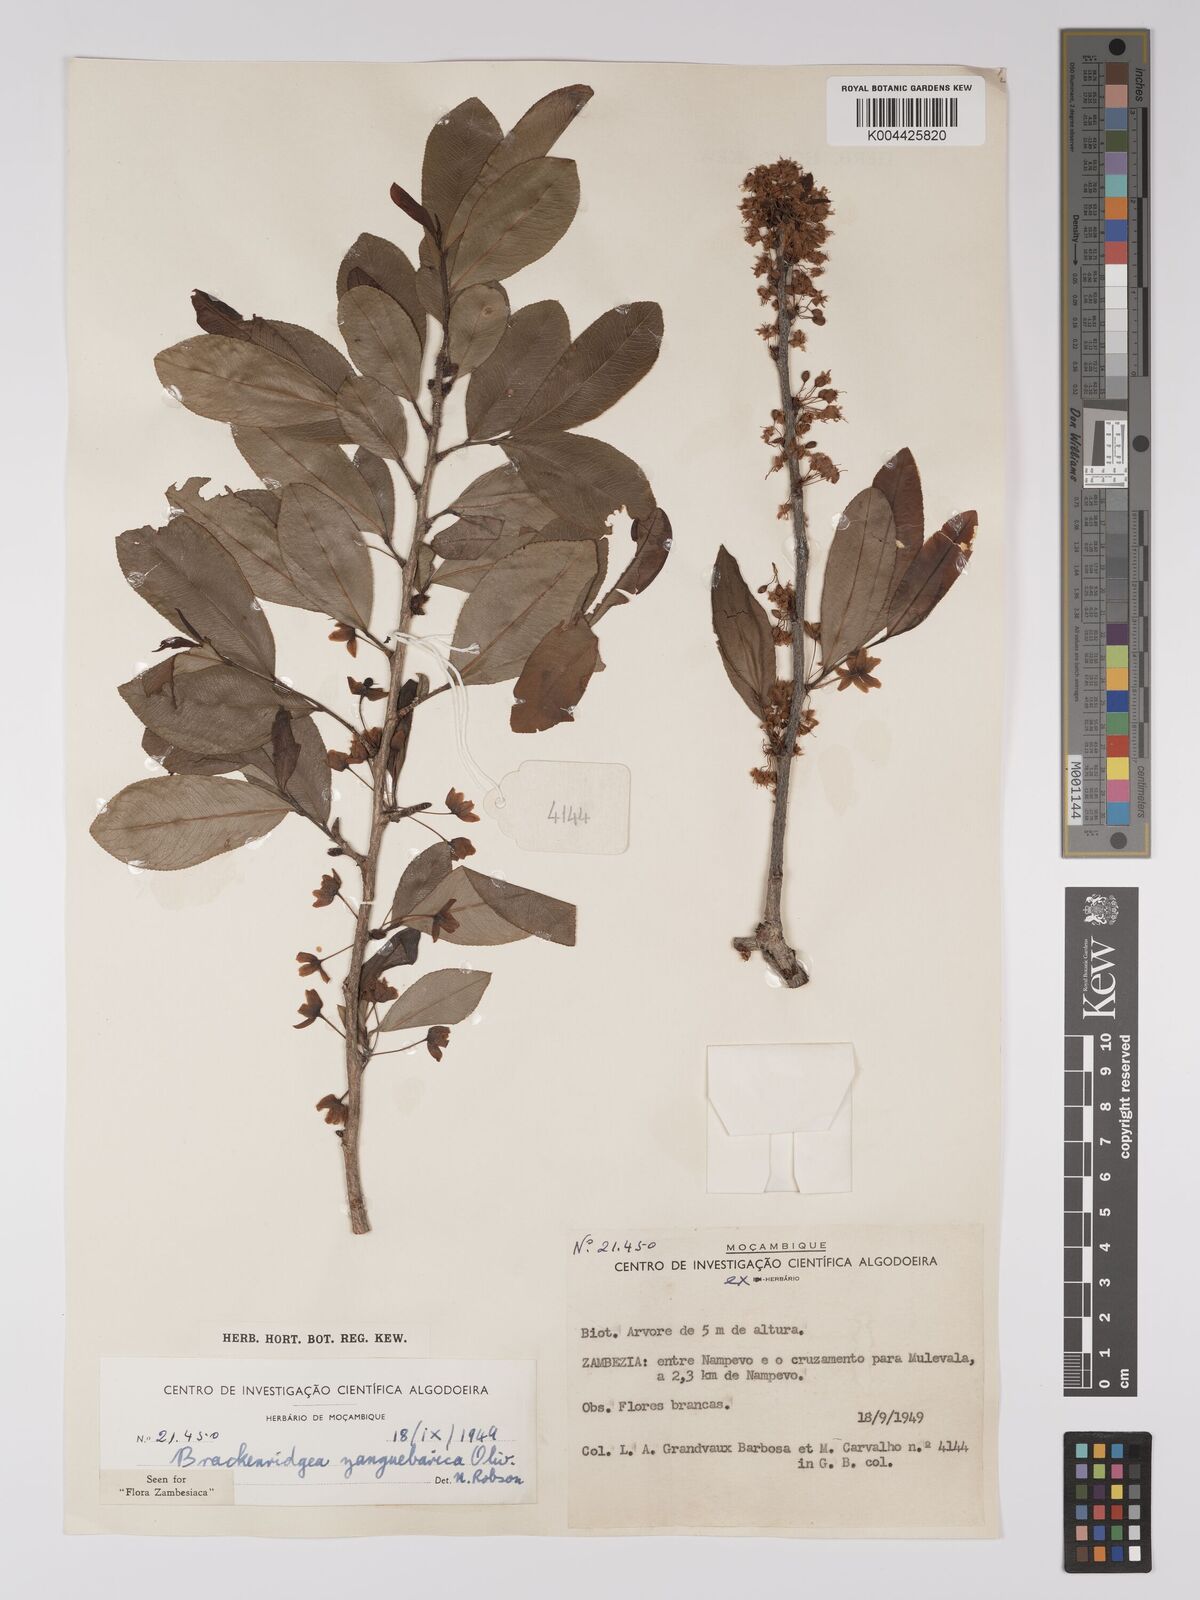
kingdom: Plantae
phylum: Tracheophyta
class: Magnoliopsida
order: Malpighiales
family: Ochnaceae
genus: Brackenridgea
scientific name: Brackenridgea zanguebarica
